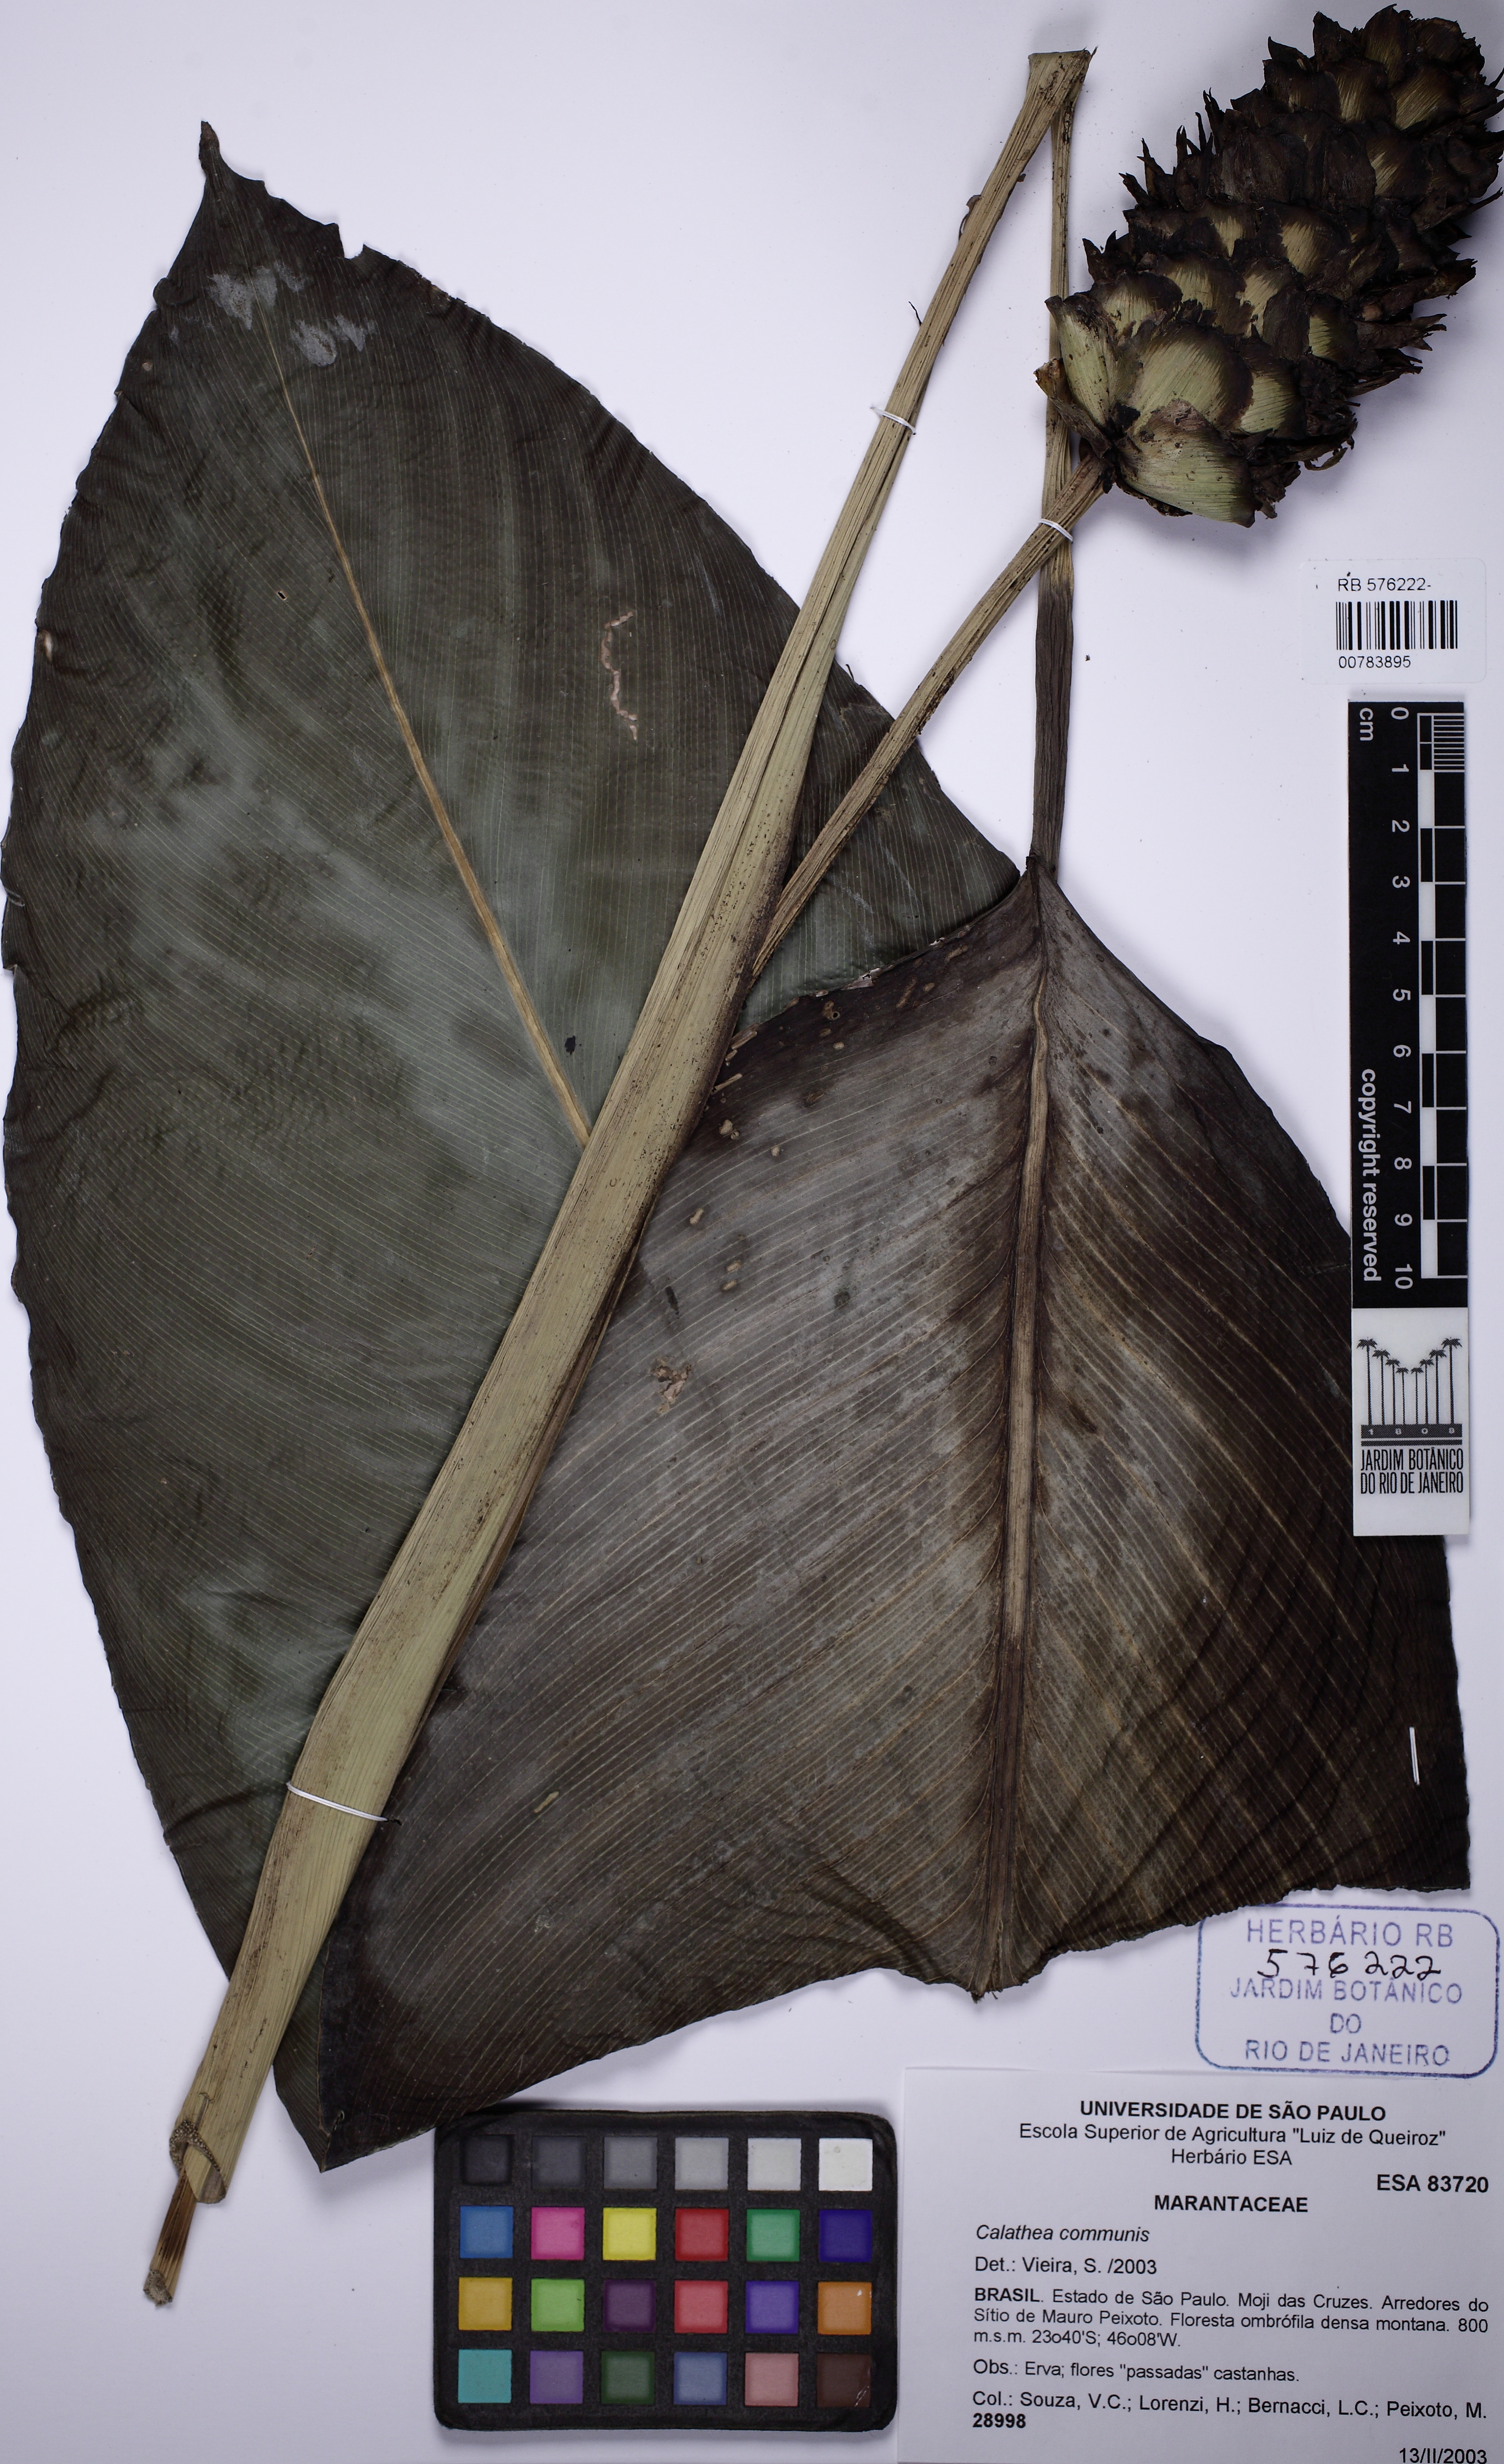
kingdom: Plantae
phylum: Tracheophyta
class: Liliopsida
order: Zingiberales
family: Marantaceae
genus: Goeppertia
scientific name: Goeppertia monophylla
